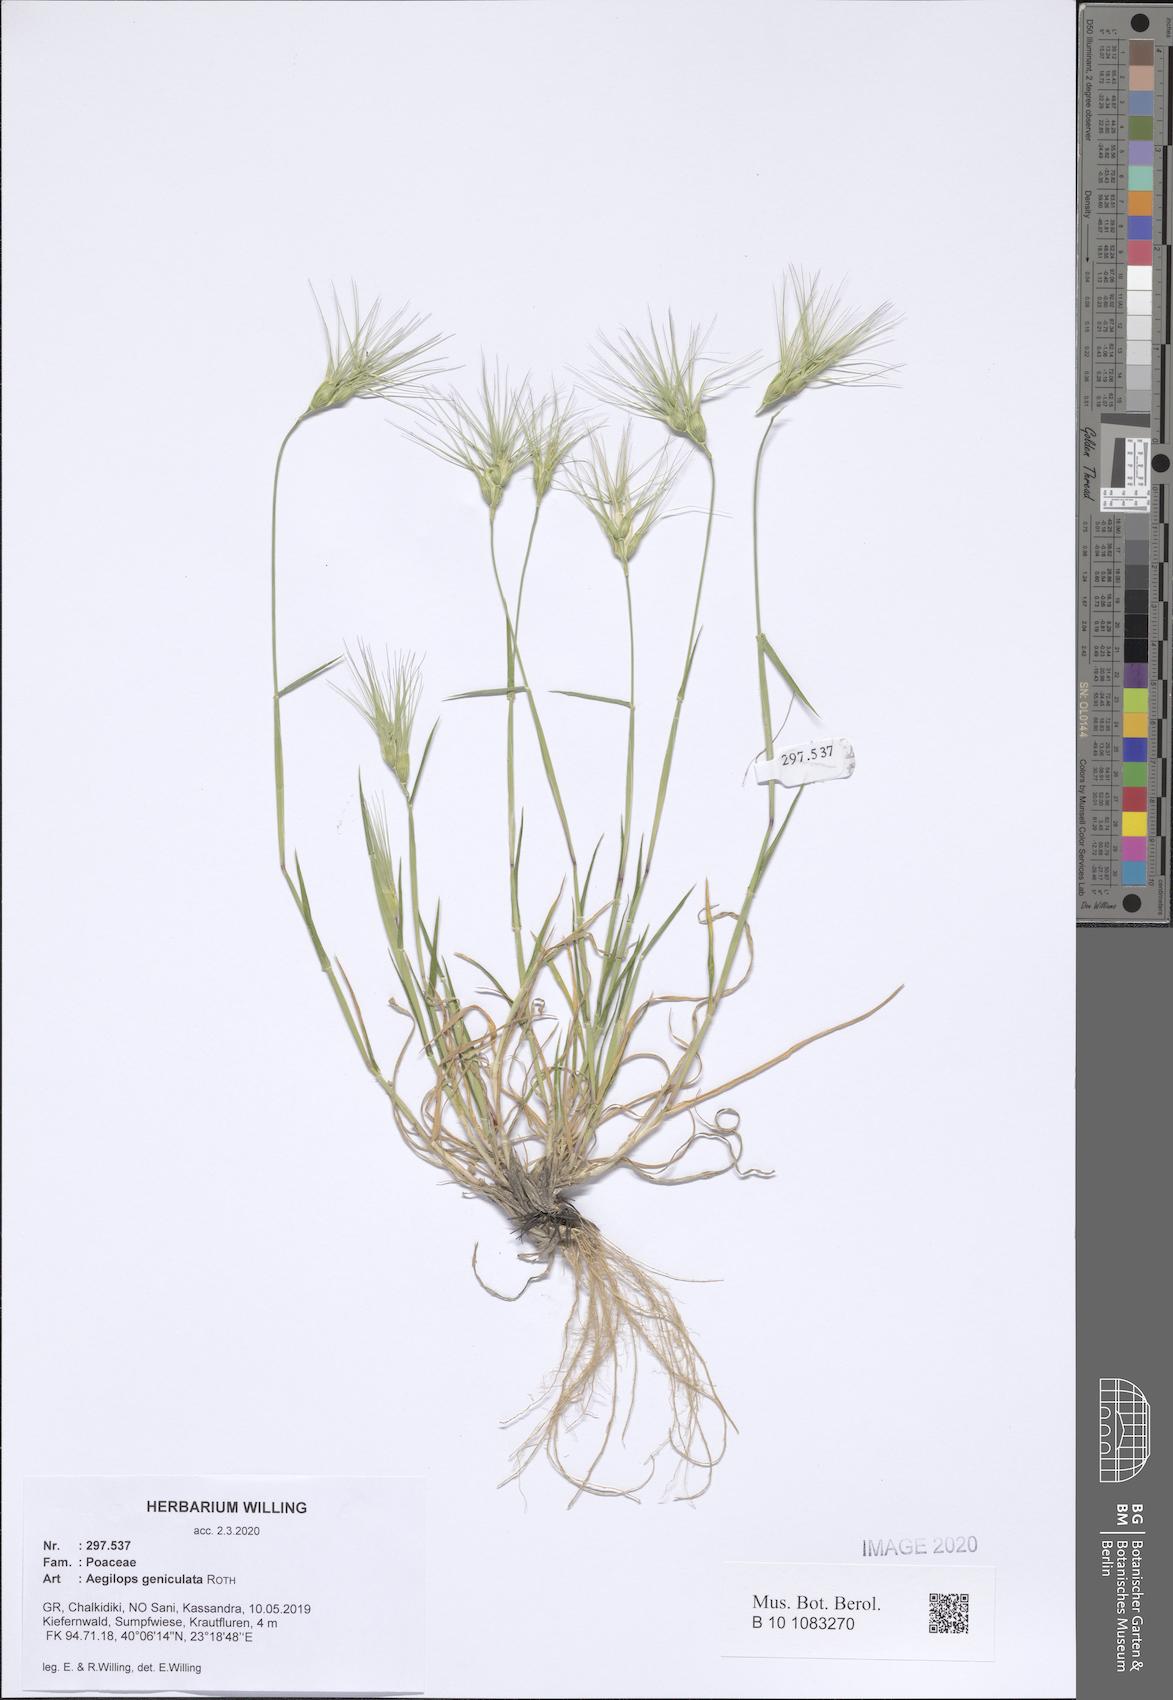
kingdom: Plantae
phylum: Tracheophyta
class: Liliopsida
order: Poales
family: Poaceae
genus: Aegilops
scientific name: Aegilops geniculata
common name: Ovate goat grass
